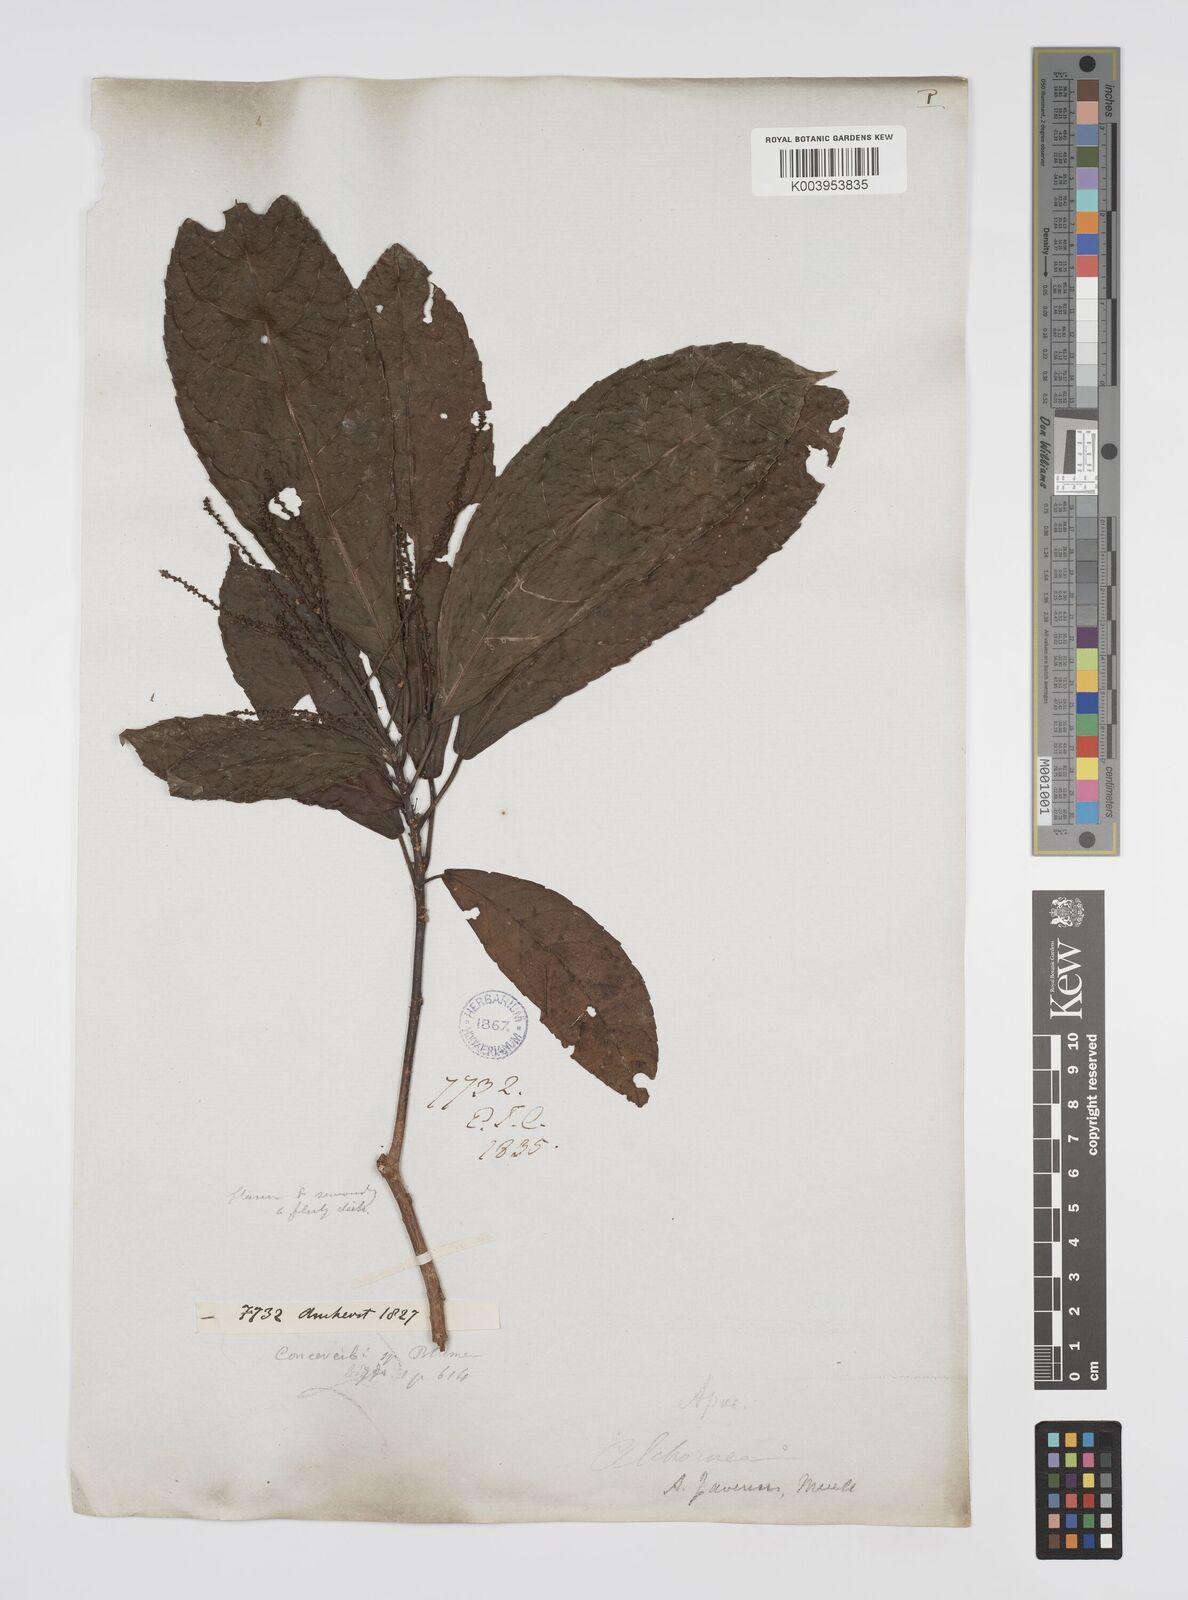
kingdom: Plantae
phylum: Tracheophyta
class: Magnoliopsida
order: Malpighiales
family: Euphorbiaceae
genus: Alchornea
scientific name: Alchornea rugosa
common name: Alchorntree
